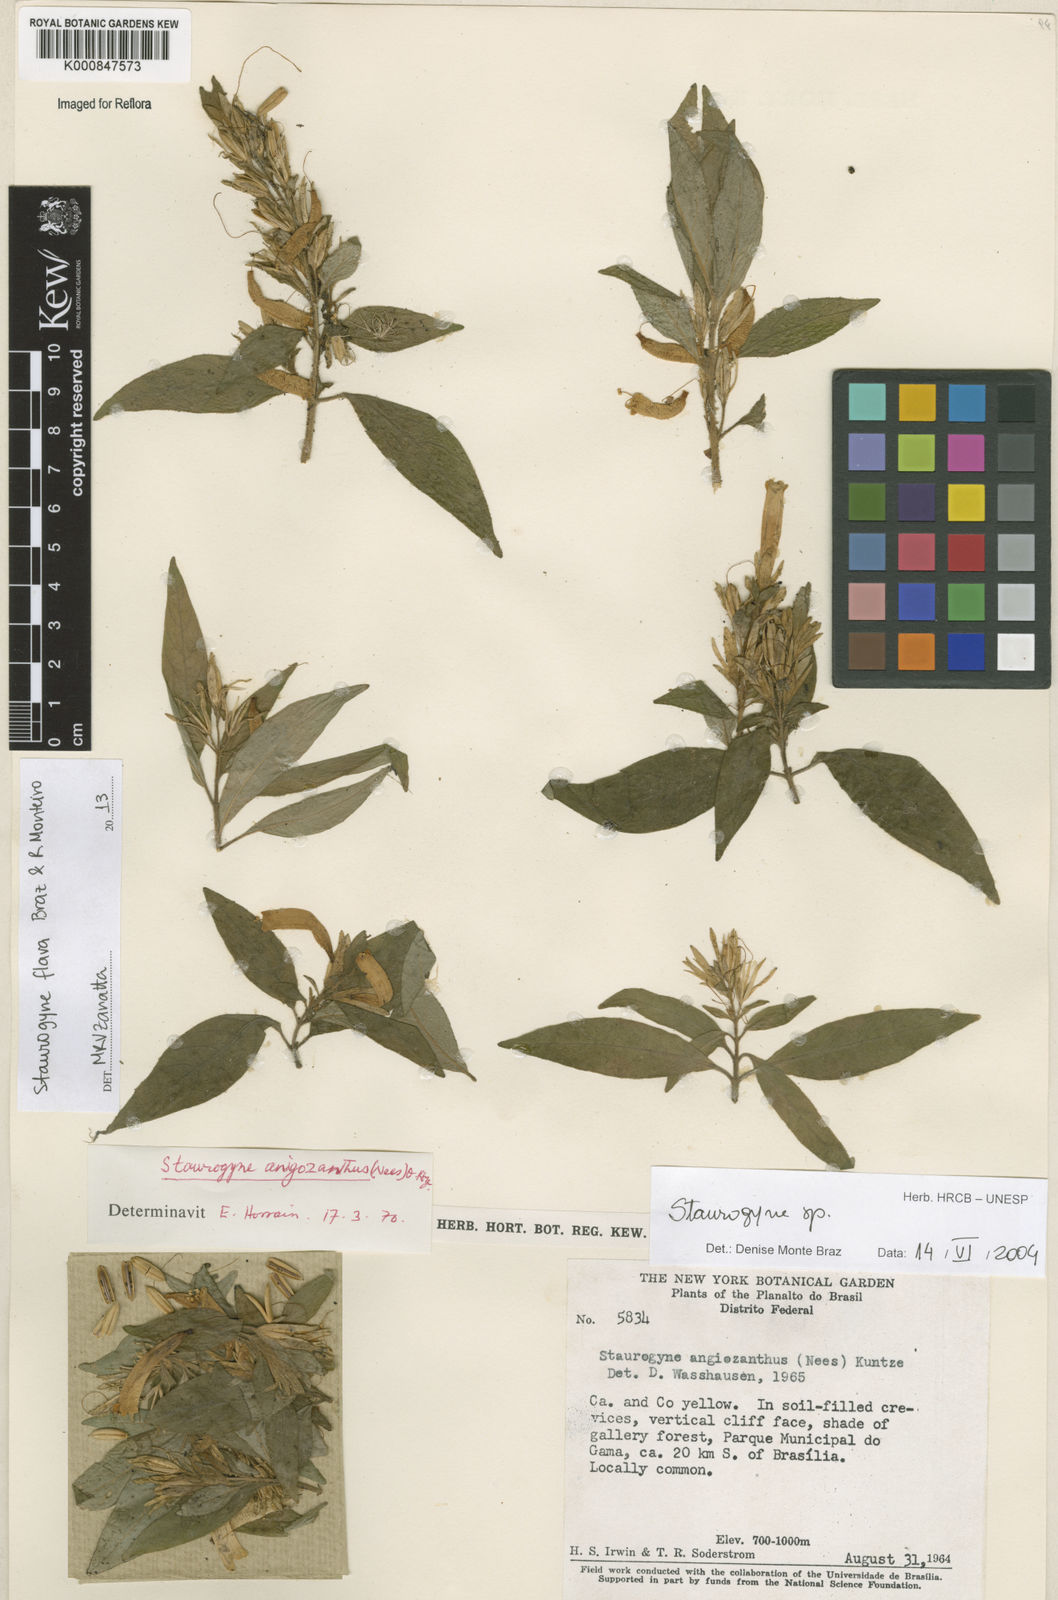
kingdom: Plantae
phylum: Tracheophyta
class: Magnoliopsida
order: Lamiales
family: Acanthaceae
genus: Staurogyne
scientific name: Staurogyne flava
